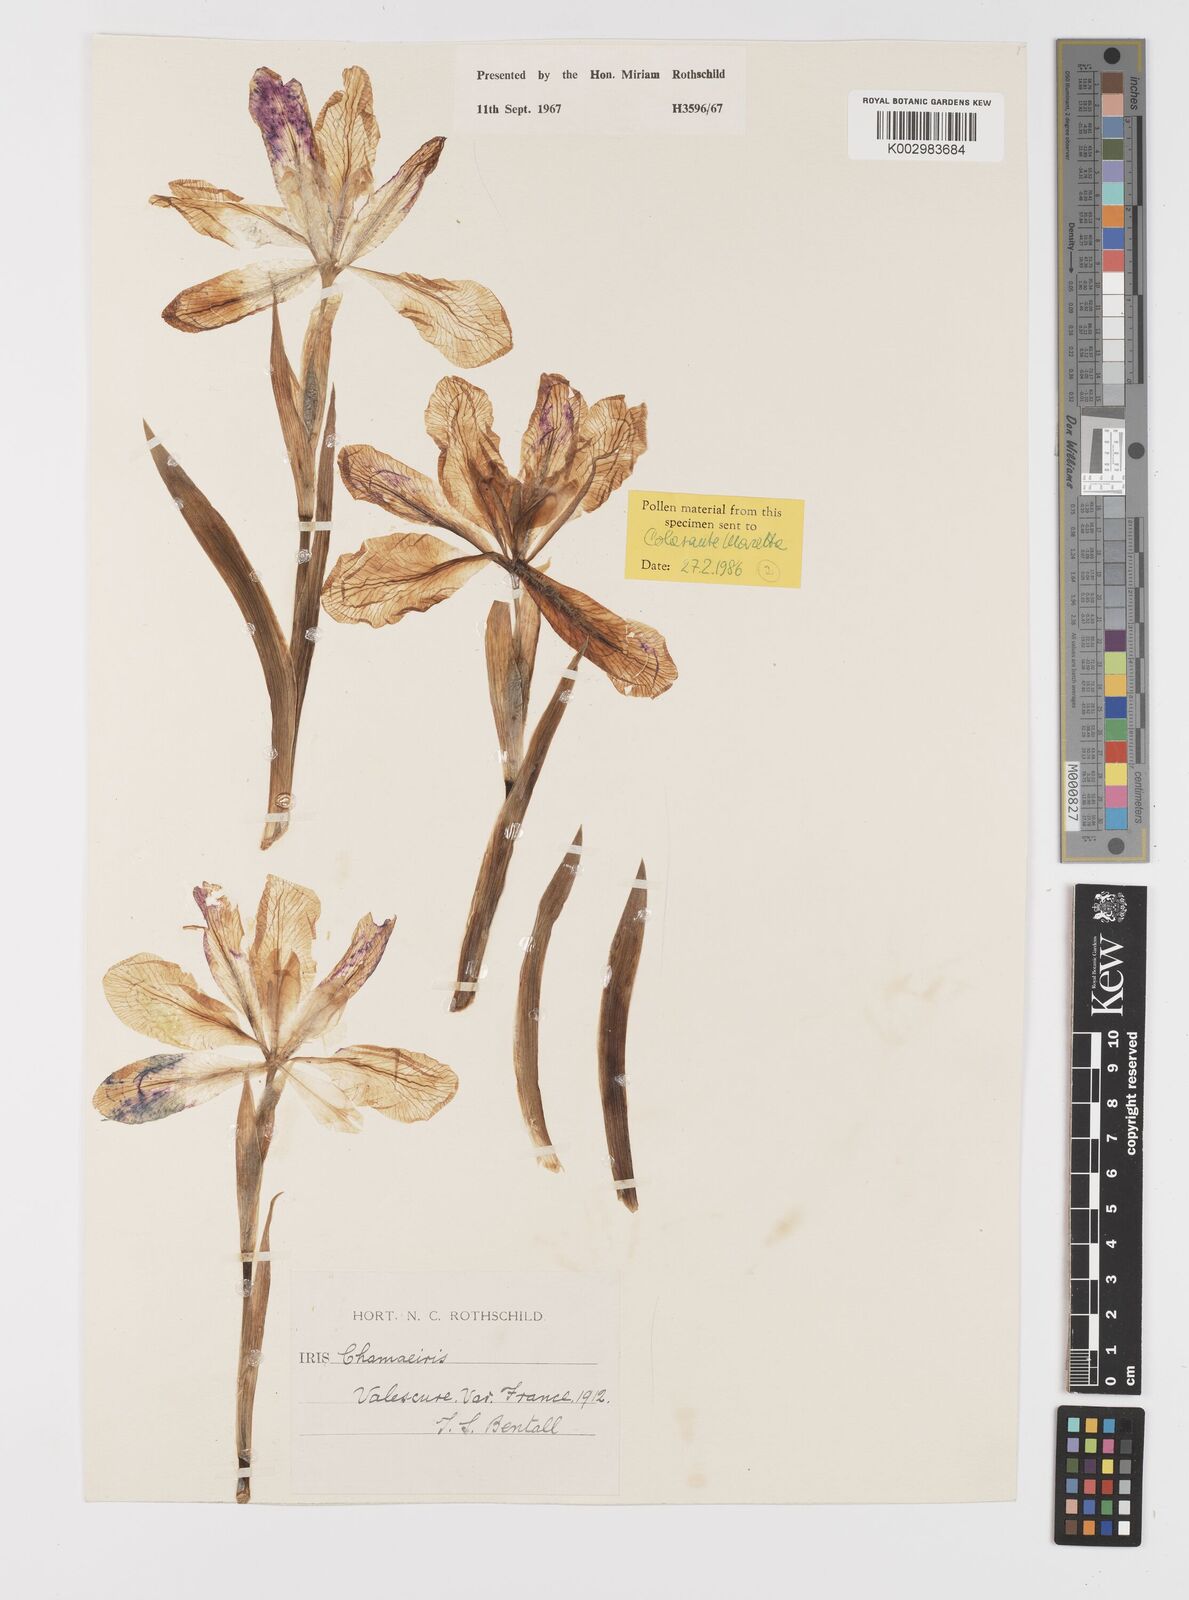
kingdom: Plantae
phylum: Tracheophyta
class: Liliopsida
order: Asparagales
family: Iridaceae
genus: Iris
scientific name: Iris lutescens
